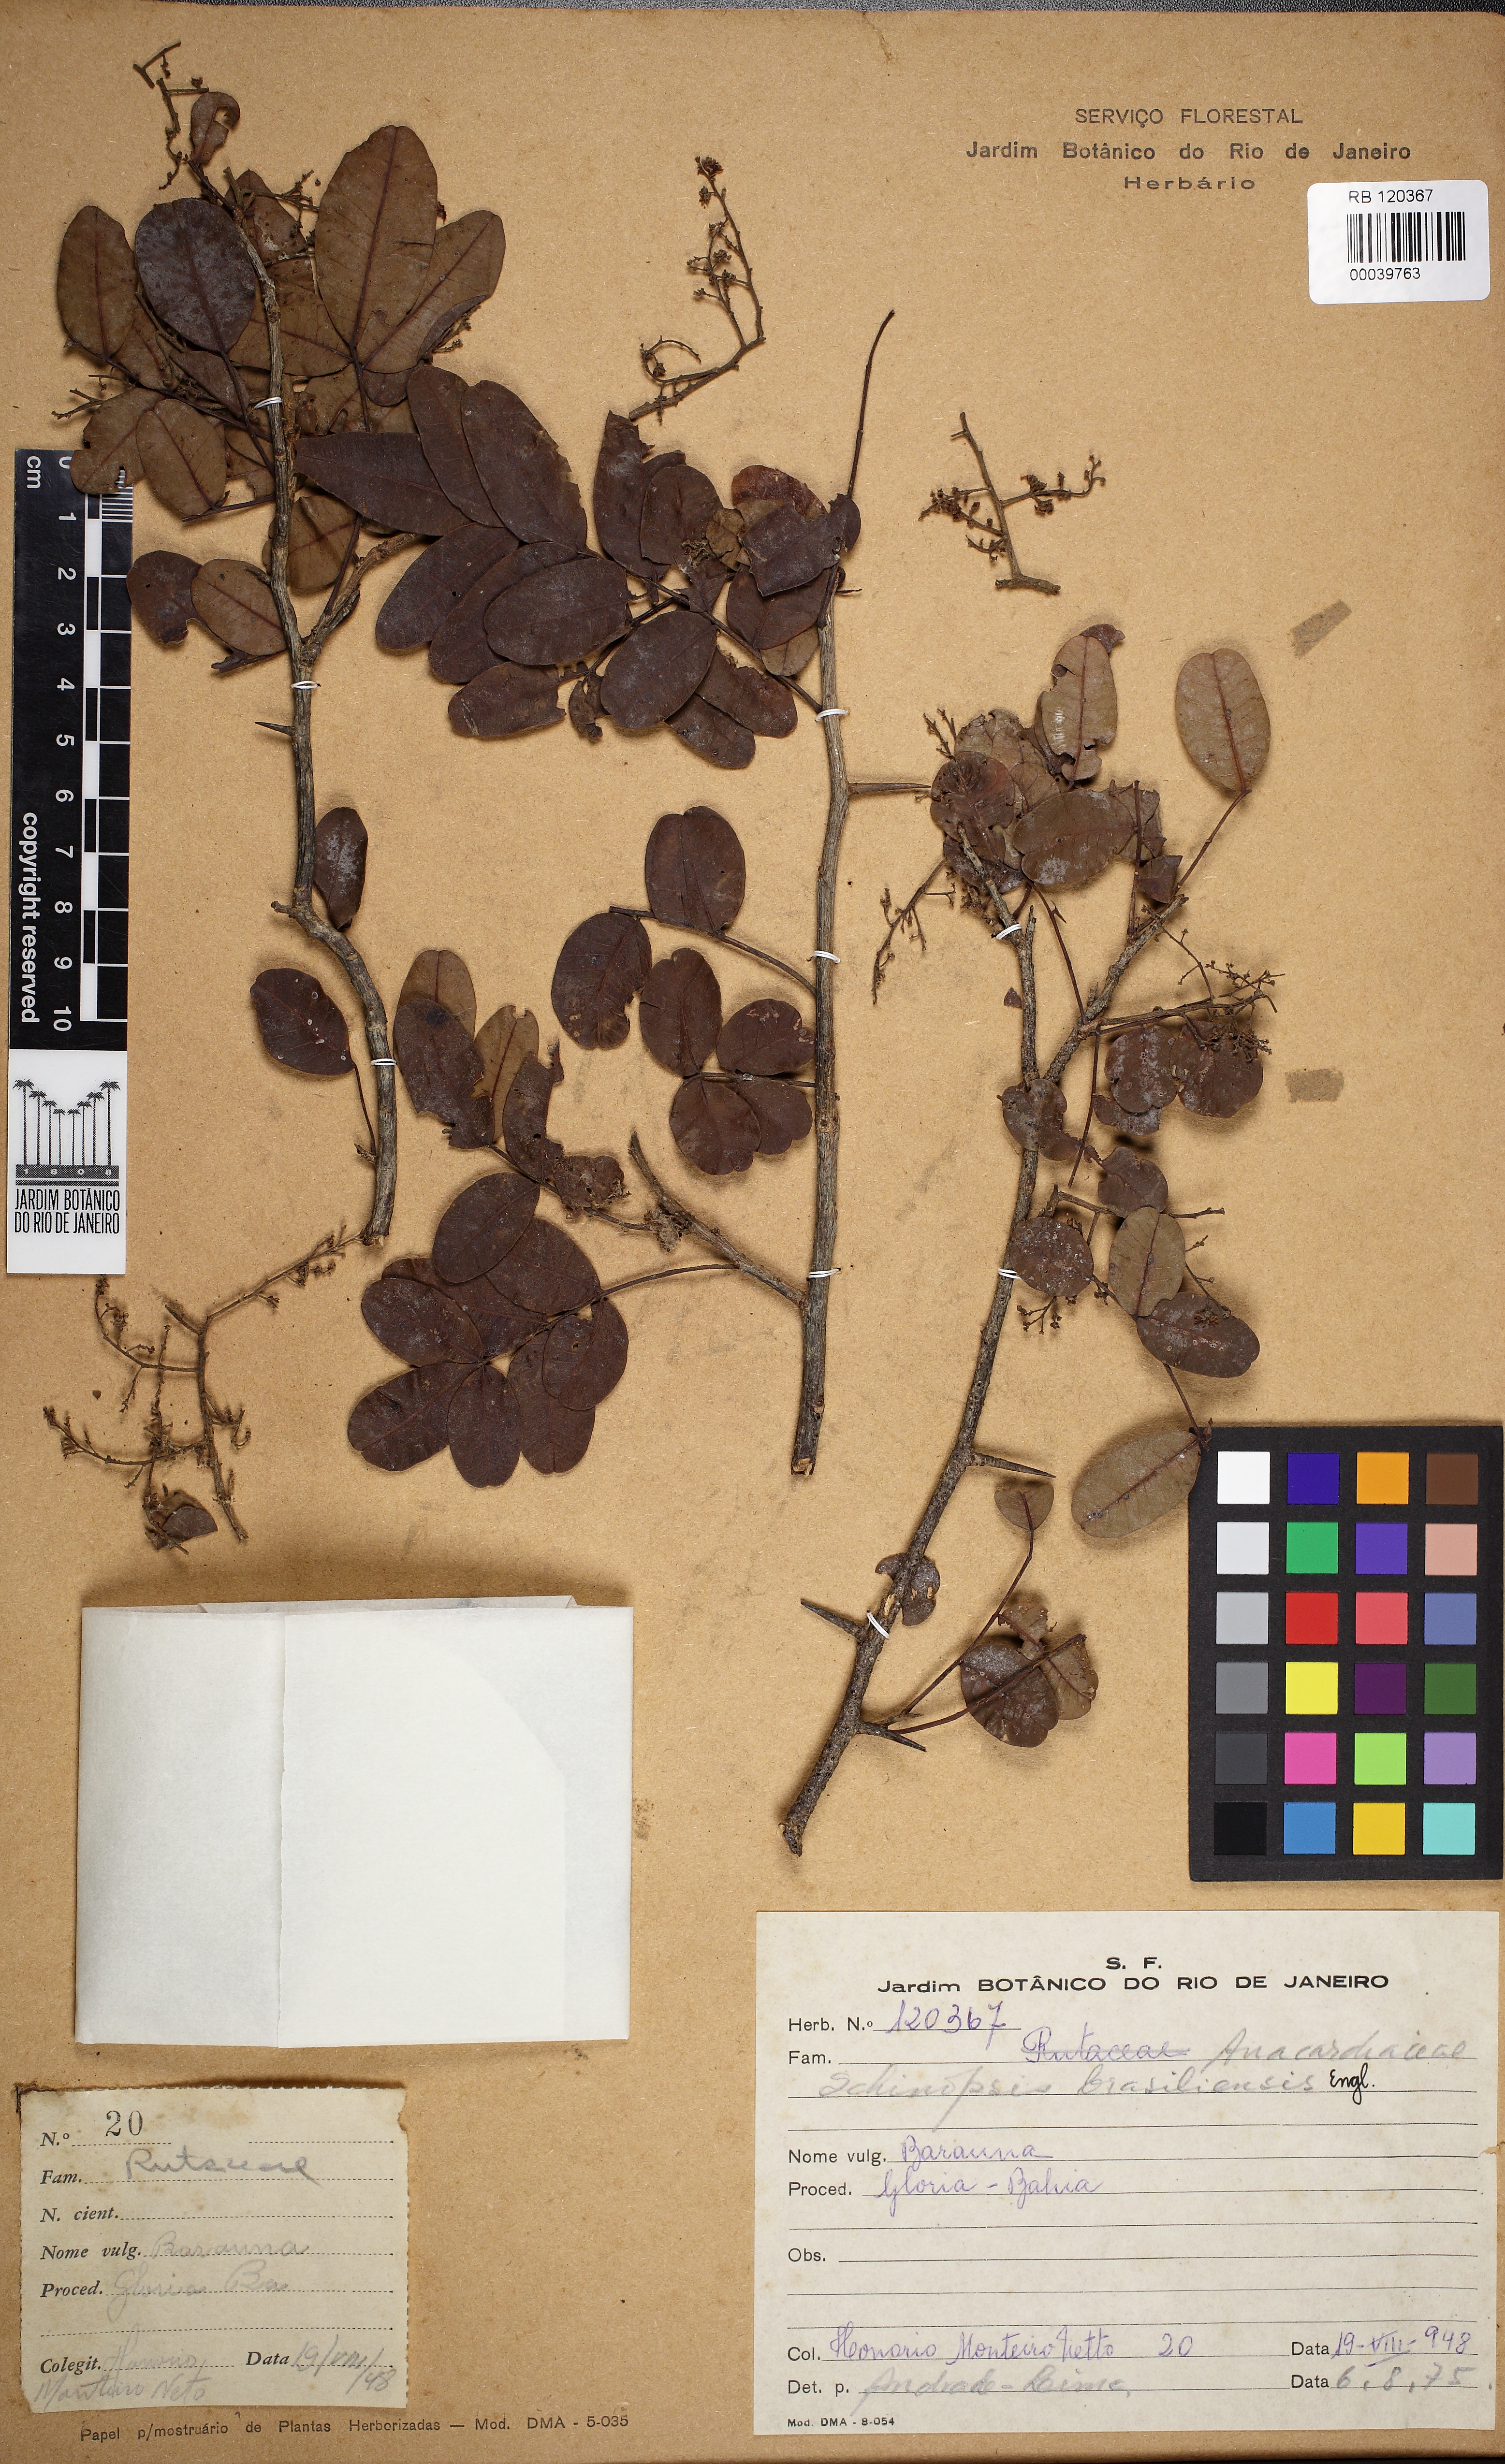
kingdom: Plantae
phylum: Tracheophyta
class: Magnoliopsida
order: Sapindales
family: Anacardiaceae
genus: Schinopsis
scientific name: Schinopsis brasiliensis
